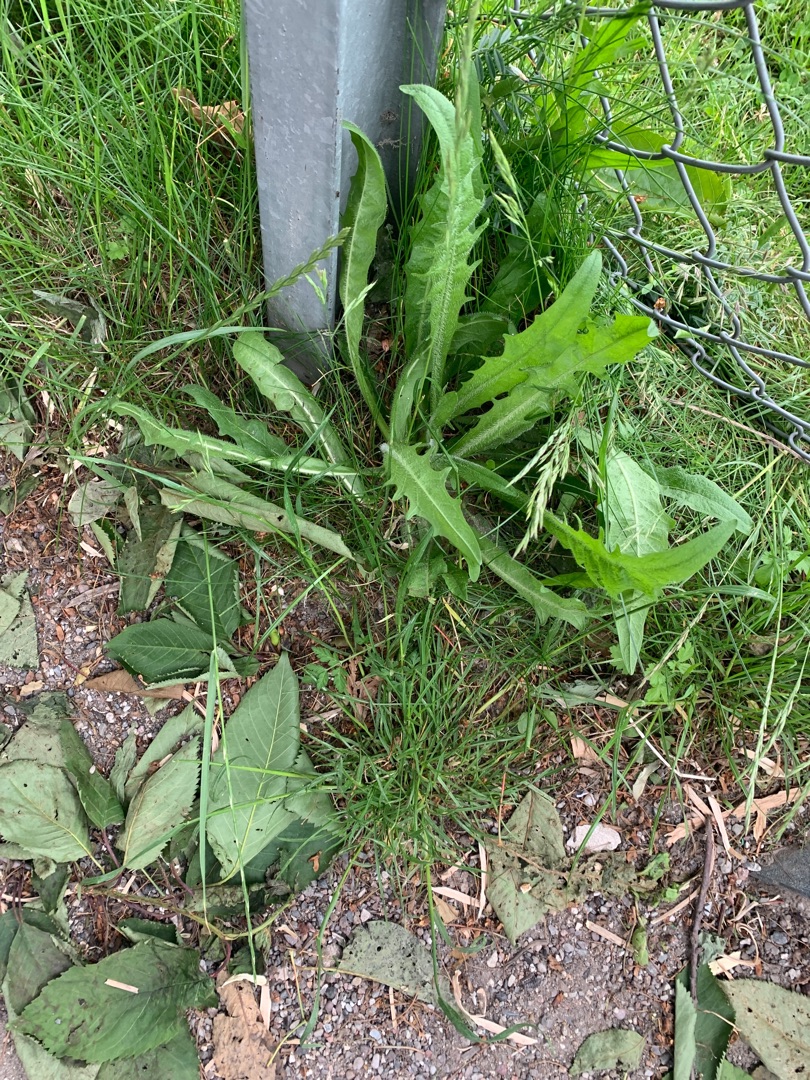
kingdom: Plantae
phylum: Tracheophyta
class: Magnoliopsida
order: Asterales
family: Asteraceae
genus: Crepis
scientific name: Crepis
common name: Høgeskægslægten
